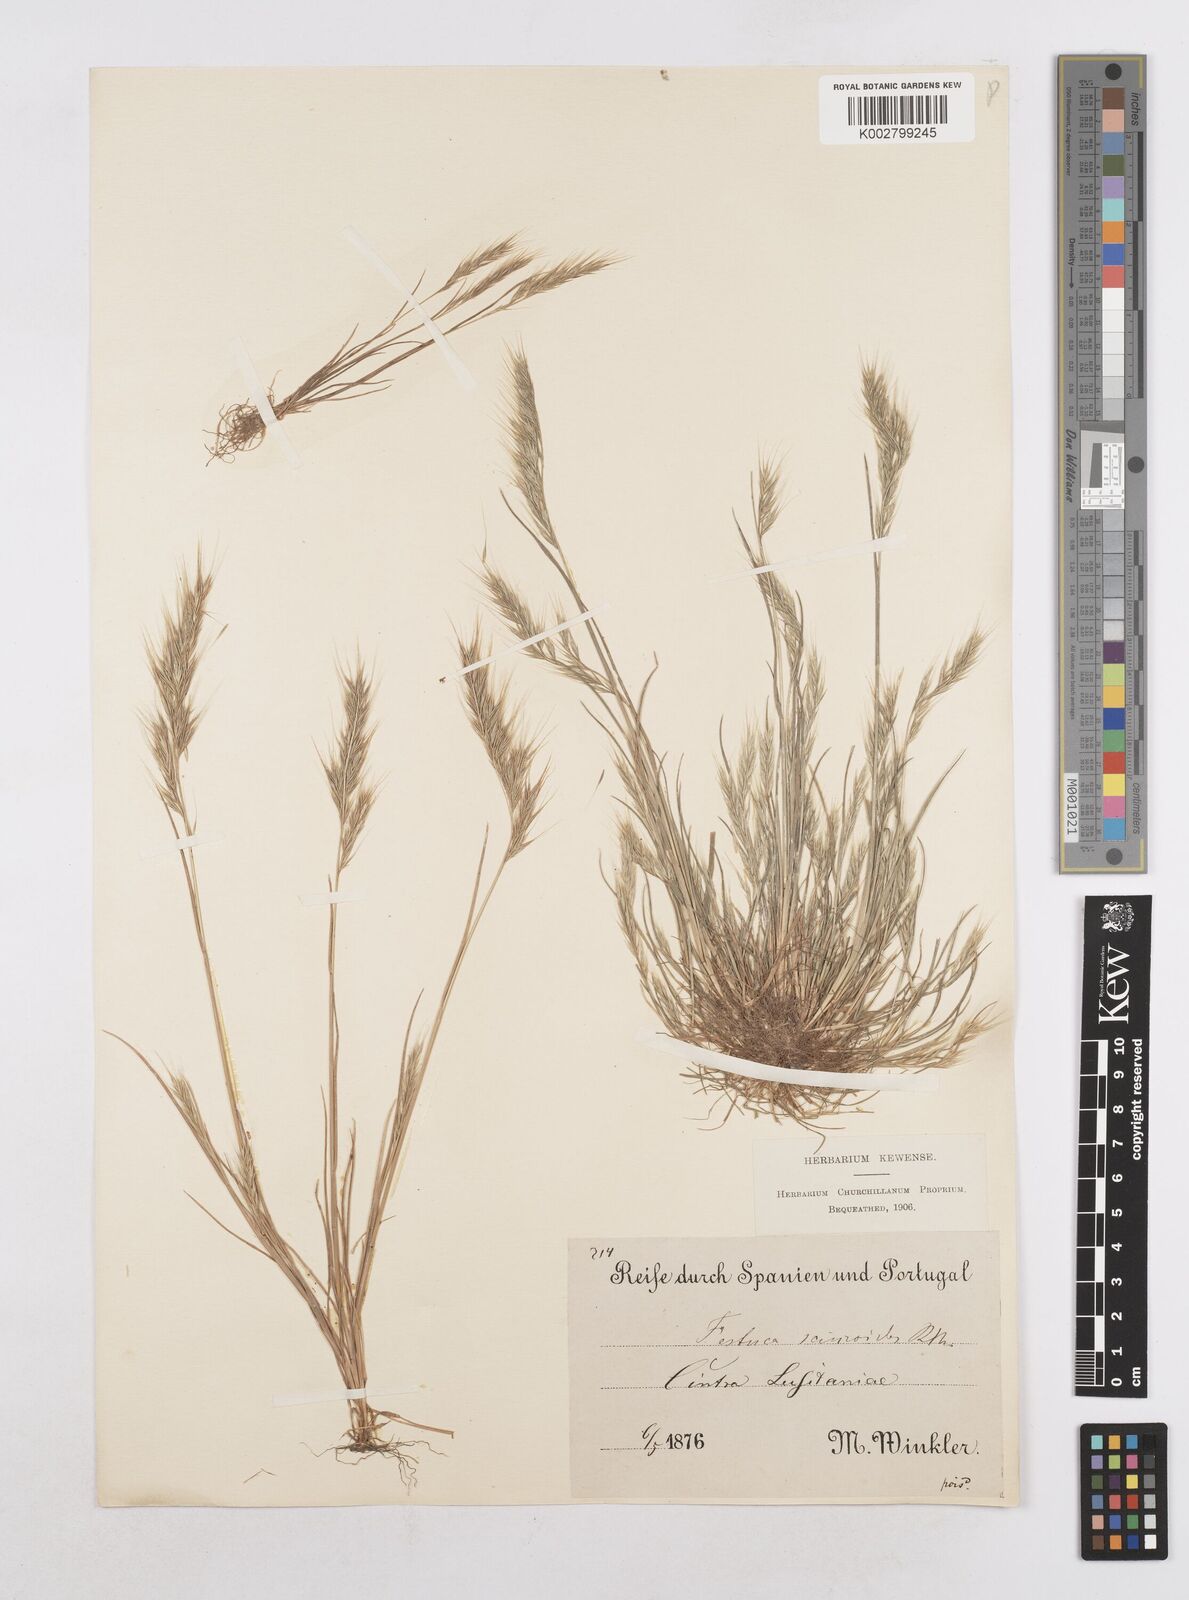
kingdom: Plantae
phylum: Tracheophyta
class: Liliopsida
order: Poales
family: Poaceae
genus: Festuca
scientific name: Festuca bromoides
